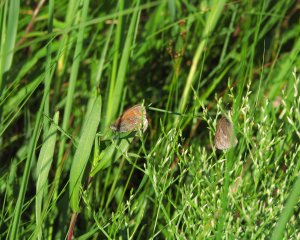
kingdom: Animalia
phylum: Arthropoda
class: Insecta
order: Lepidoptera
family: Nymphalidae
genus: Coenonympha
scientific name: Coenonympha inornata
